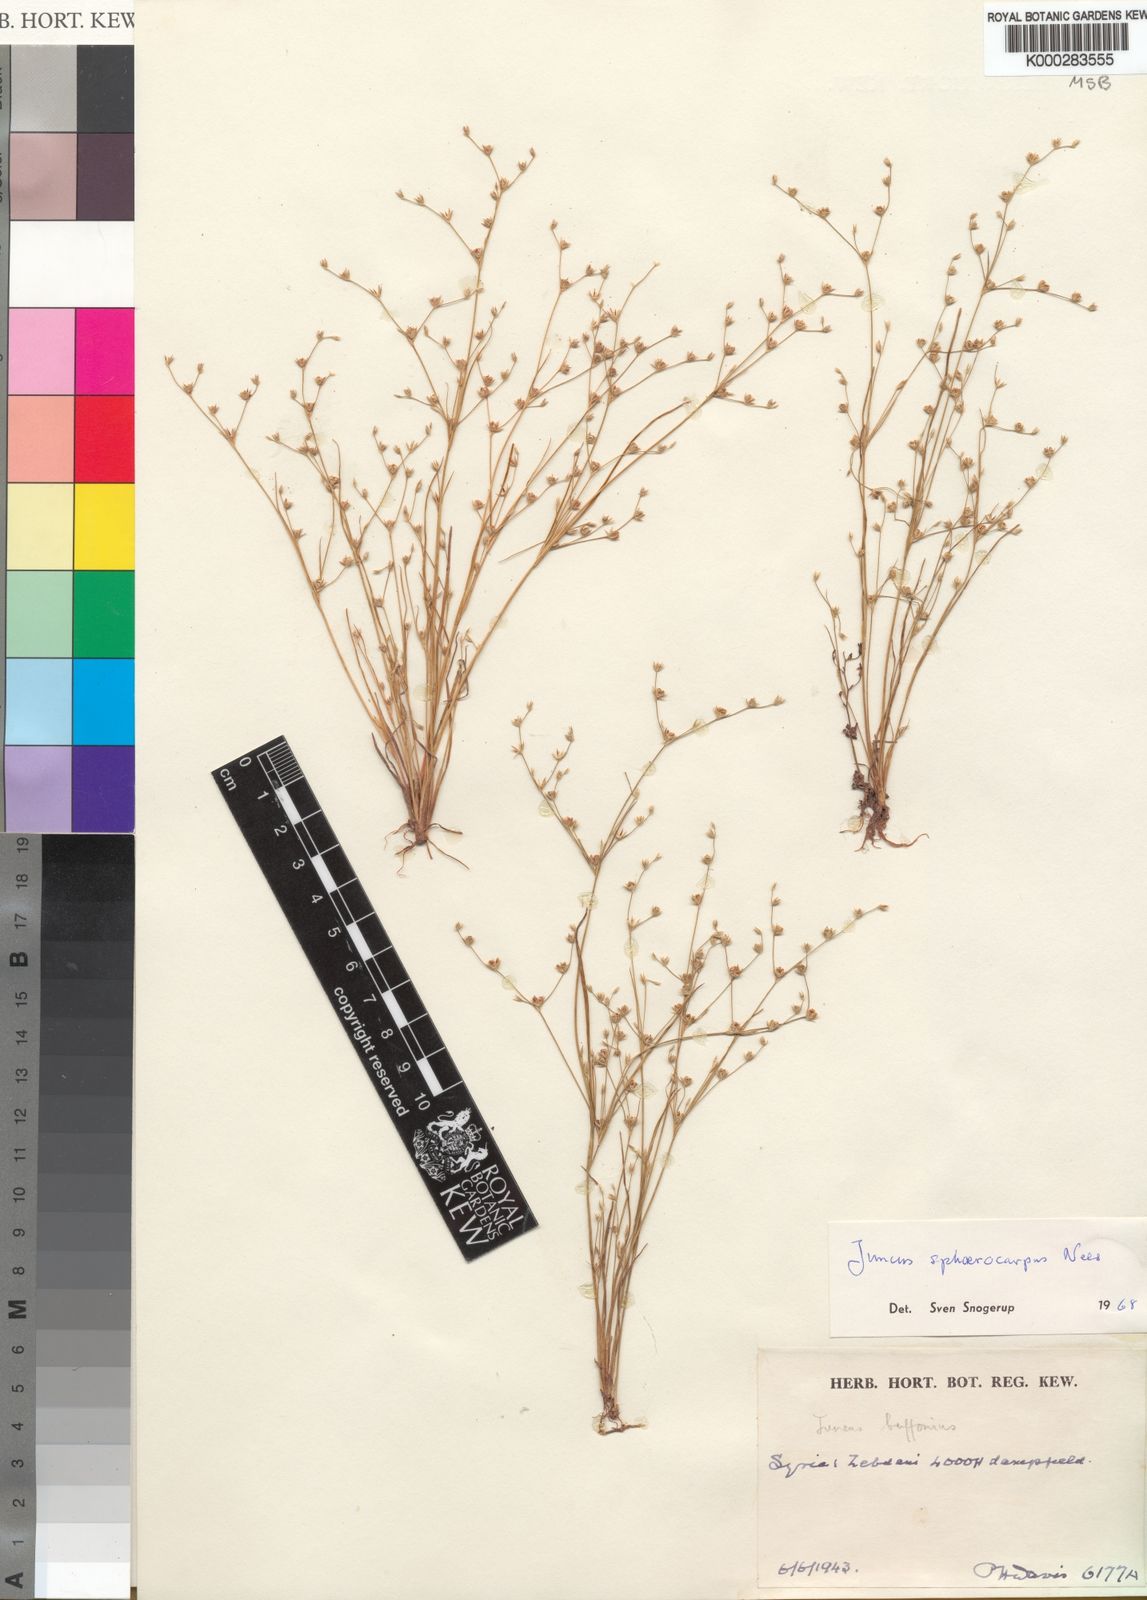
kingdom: Plantae
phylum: Tracheophyta
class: Liliopsida
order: Poales
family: Juncaceae
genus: Juncus
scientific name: Juncus
